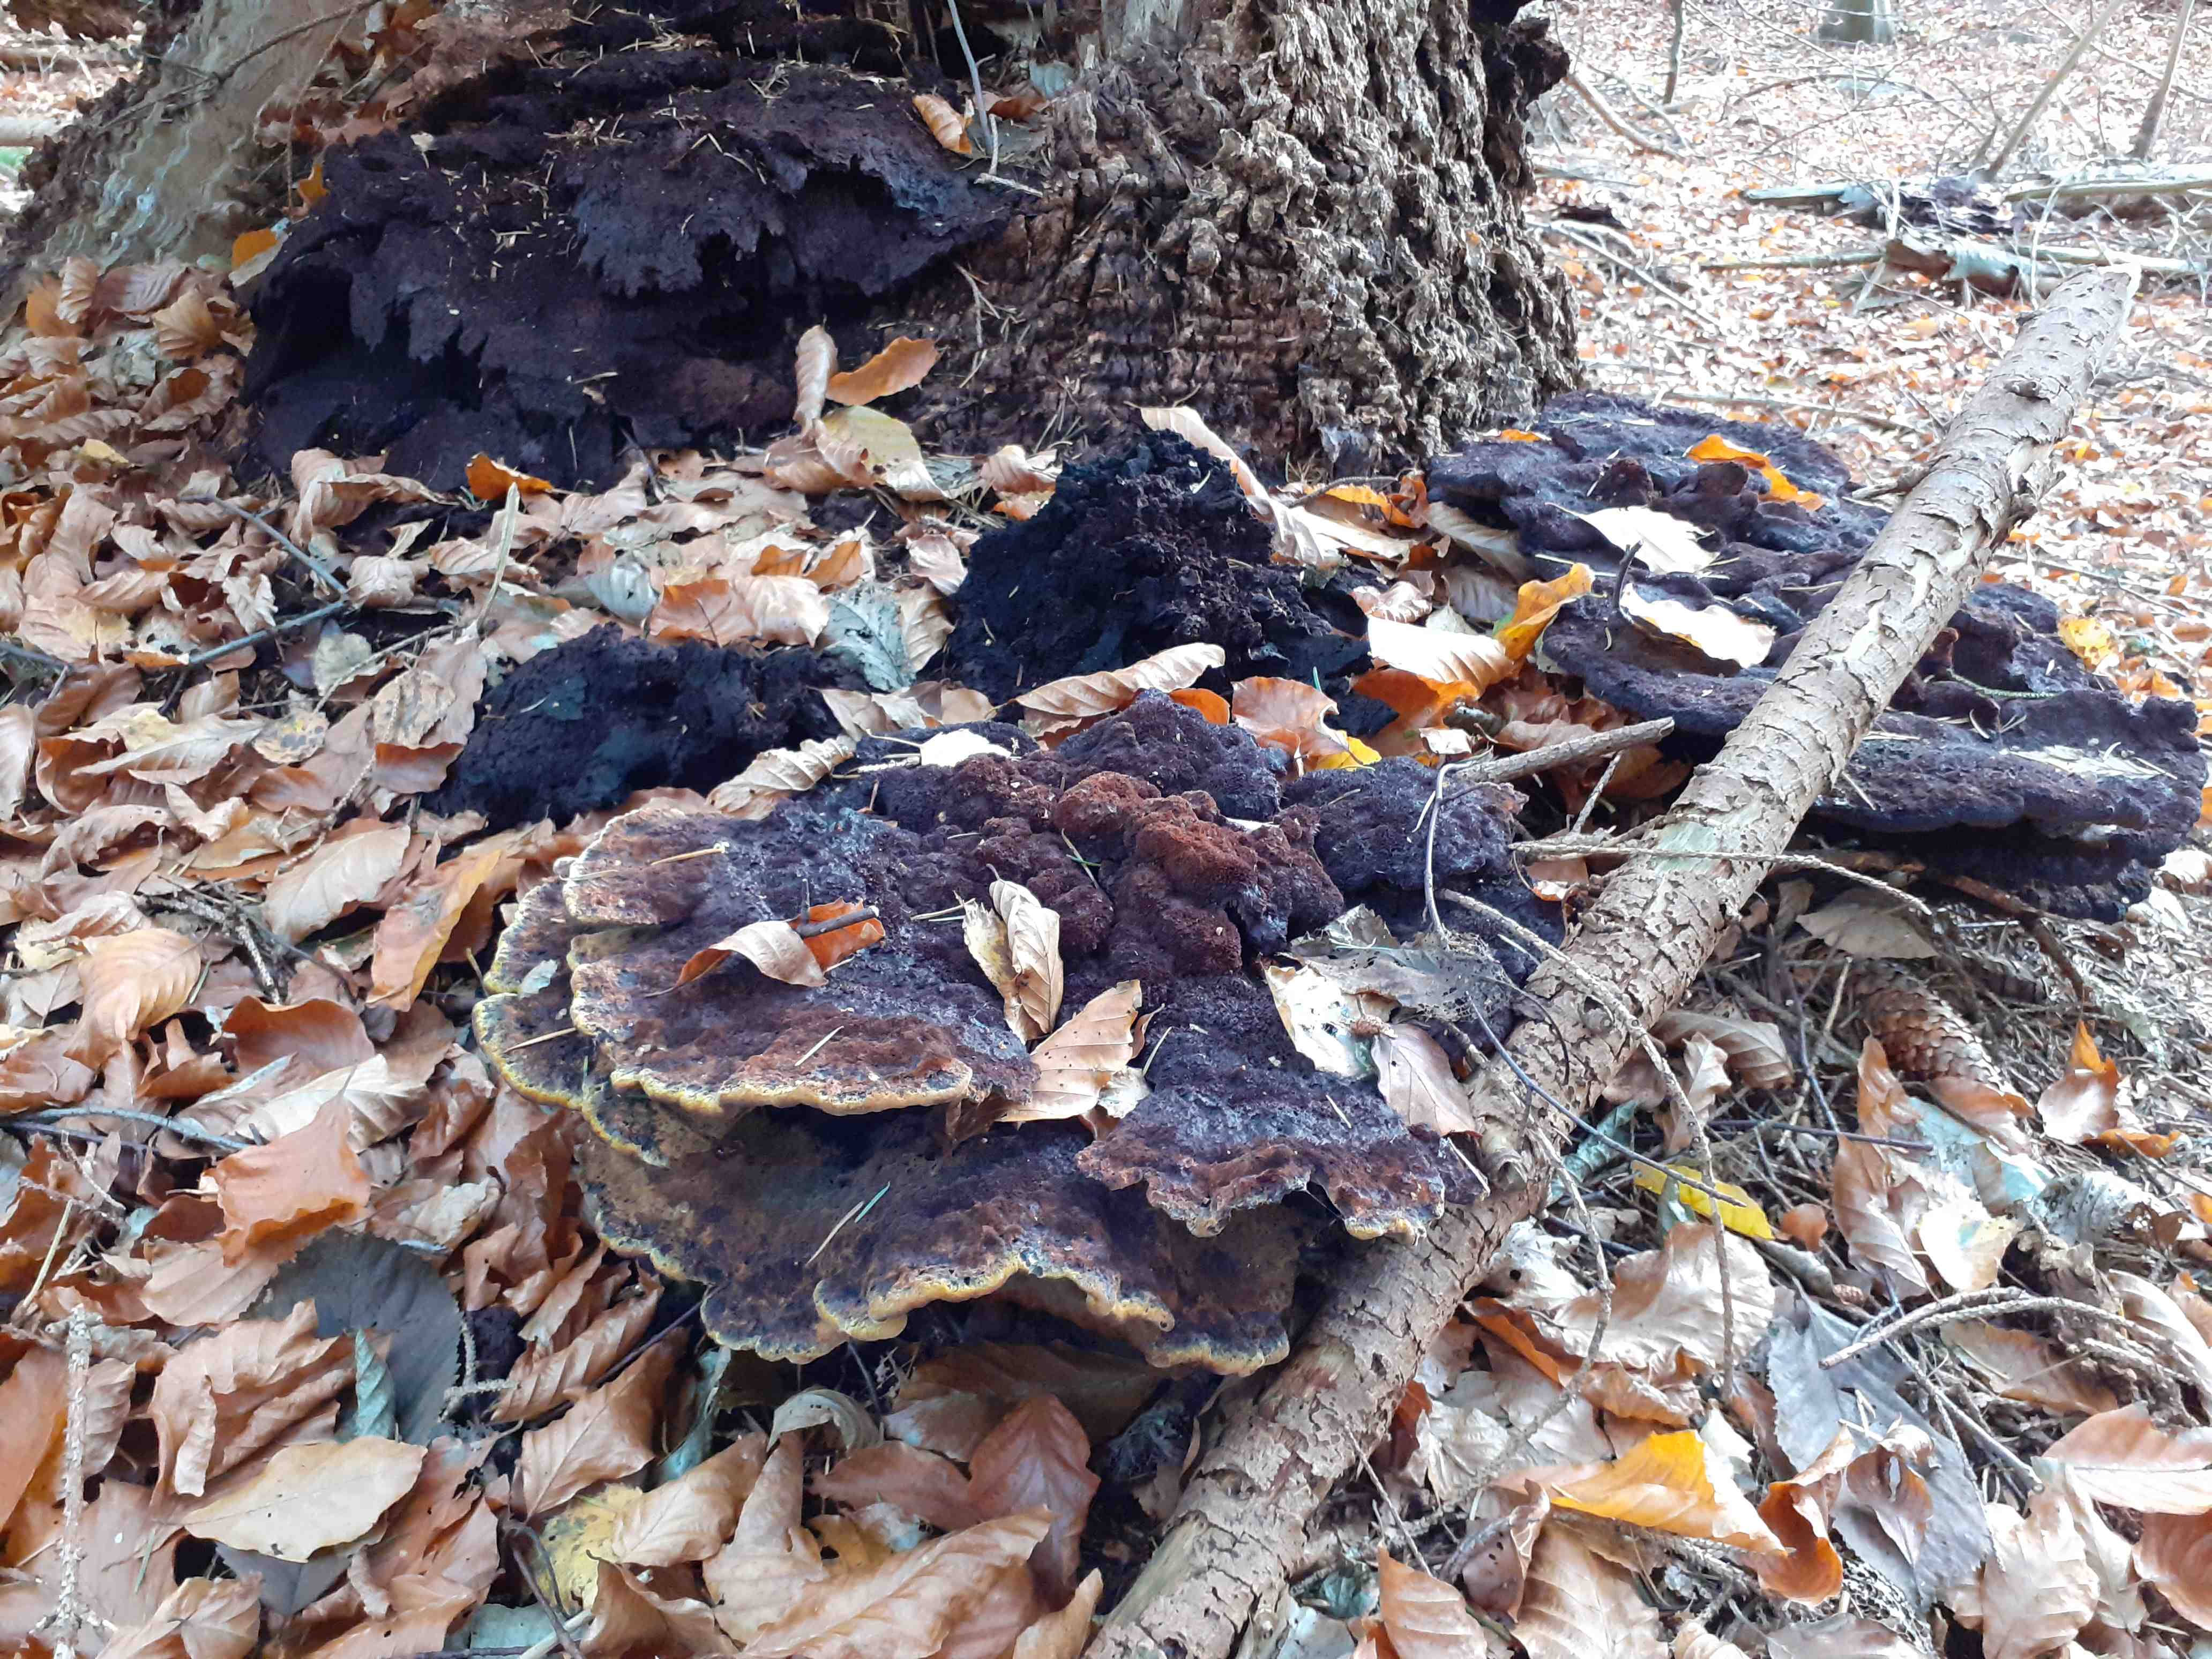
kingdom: Fungi
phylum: Basidiomycota
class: Agaricomycetes
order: Polyporales
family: Laetiporaceae
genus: Phaeolus
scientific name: Phaeolus schweinitzii
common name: brunporesvamp
